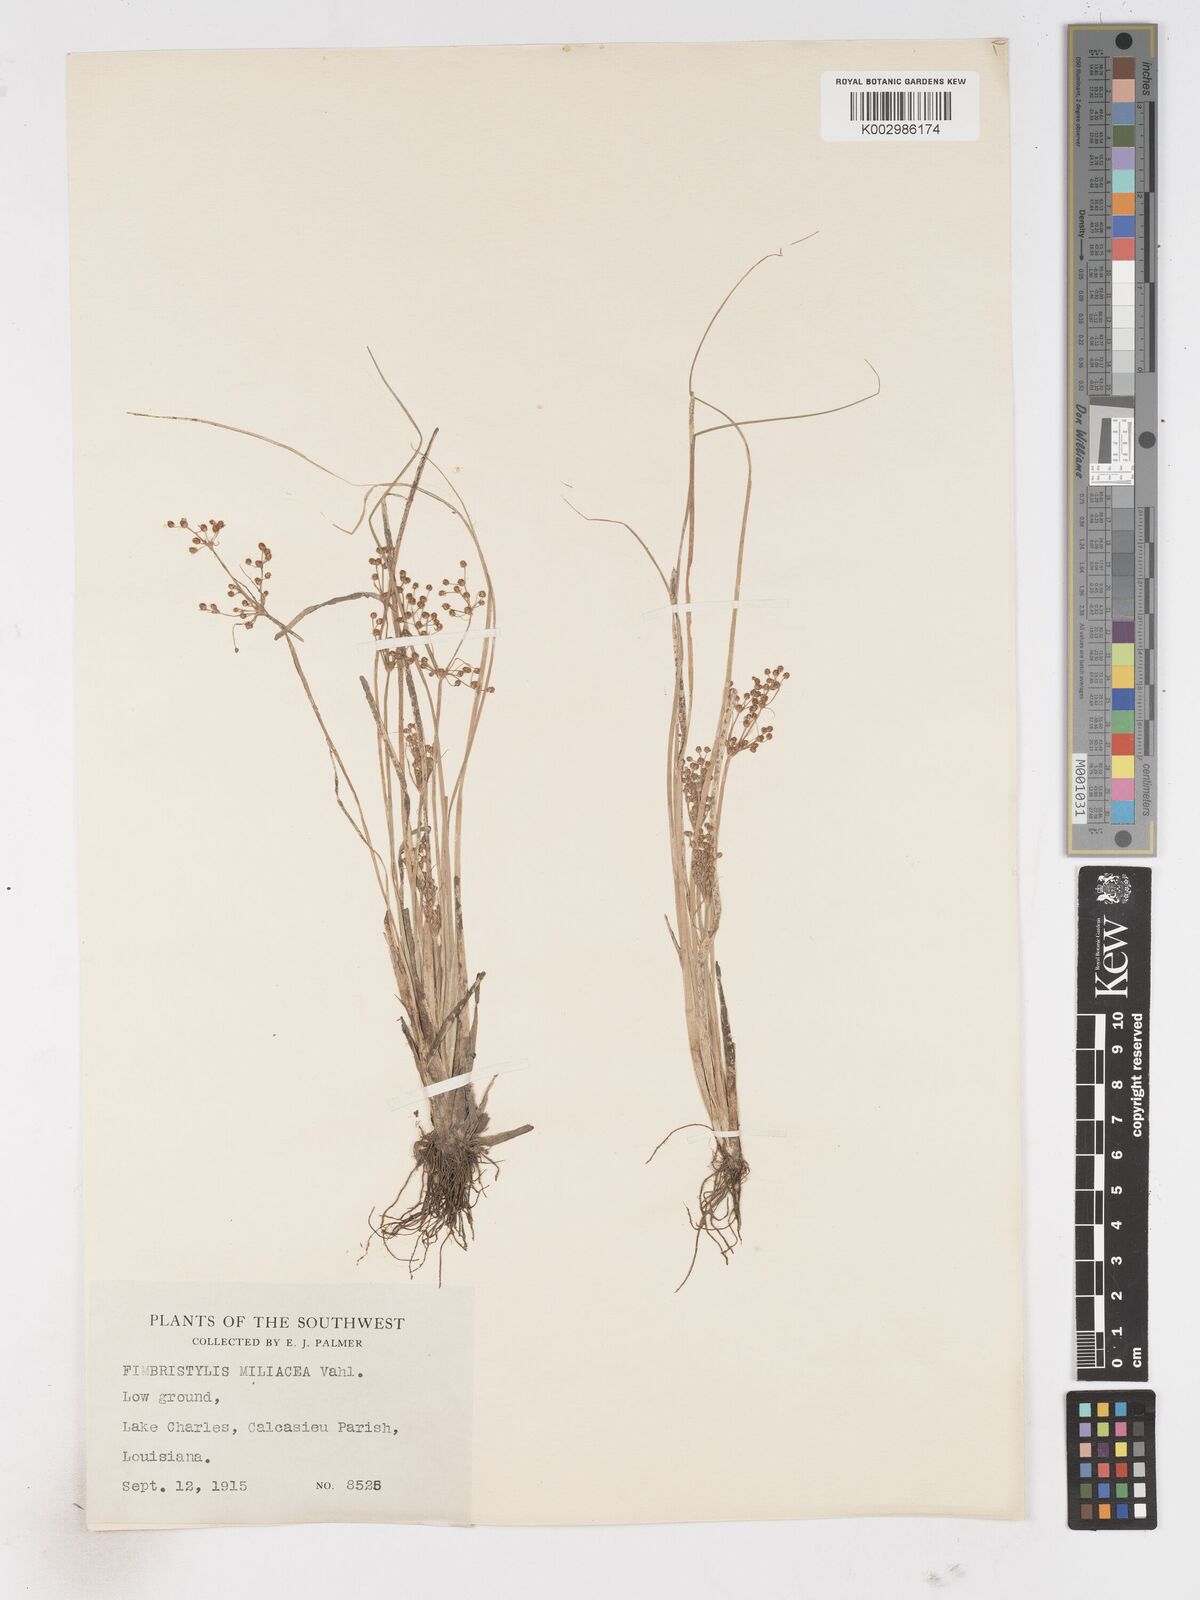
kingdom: Plantae
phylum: Tracheophyta
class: Liliopsida
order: Poales
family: Cyperaceae
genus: Fimbristylis
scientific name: Fimbristylis littoralis
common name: Fimbry
